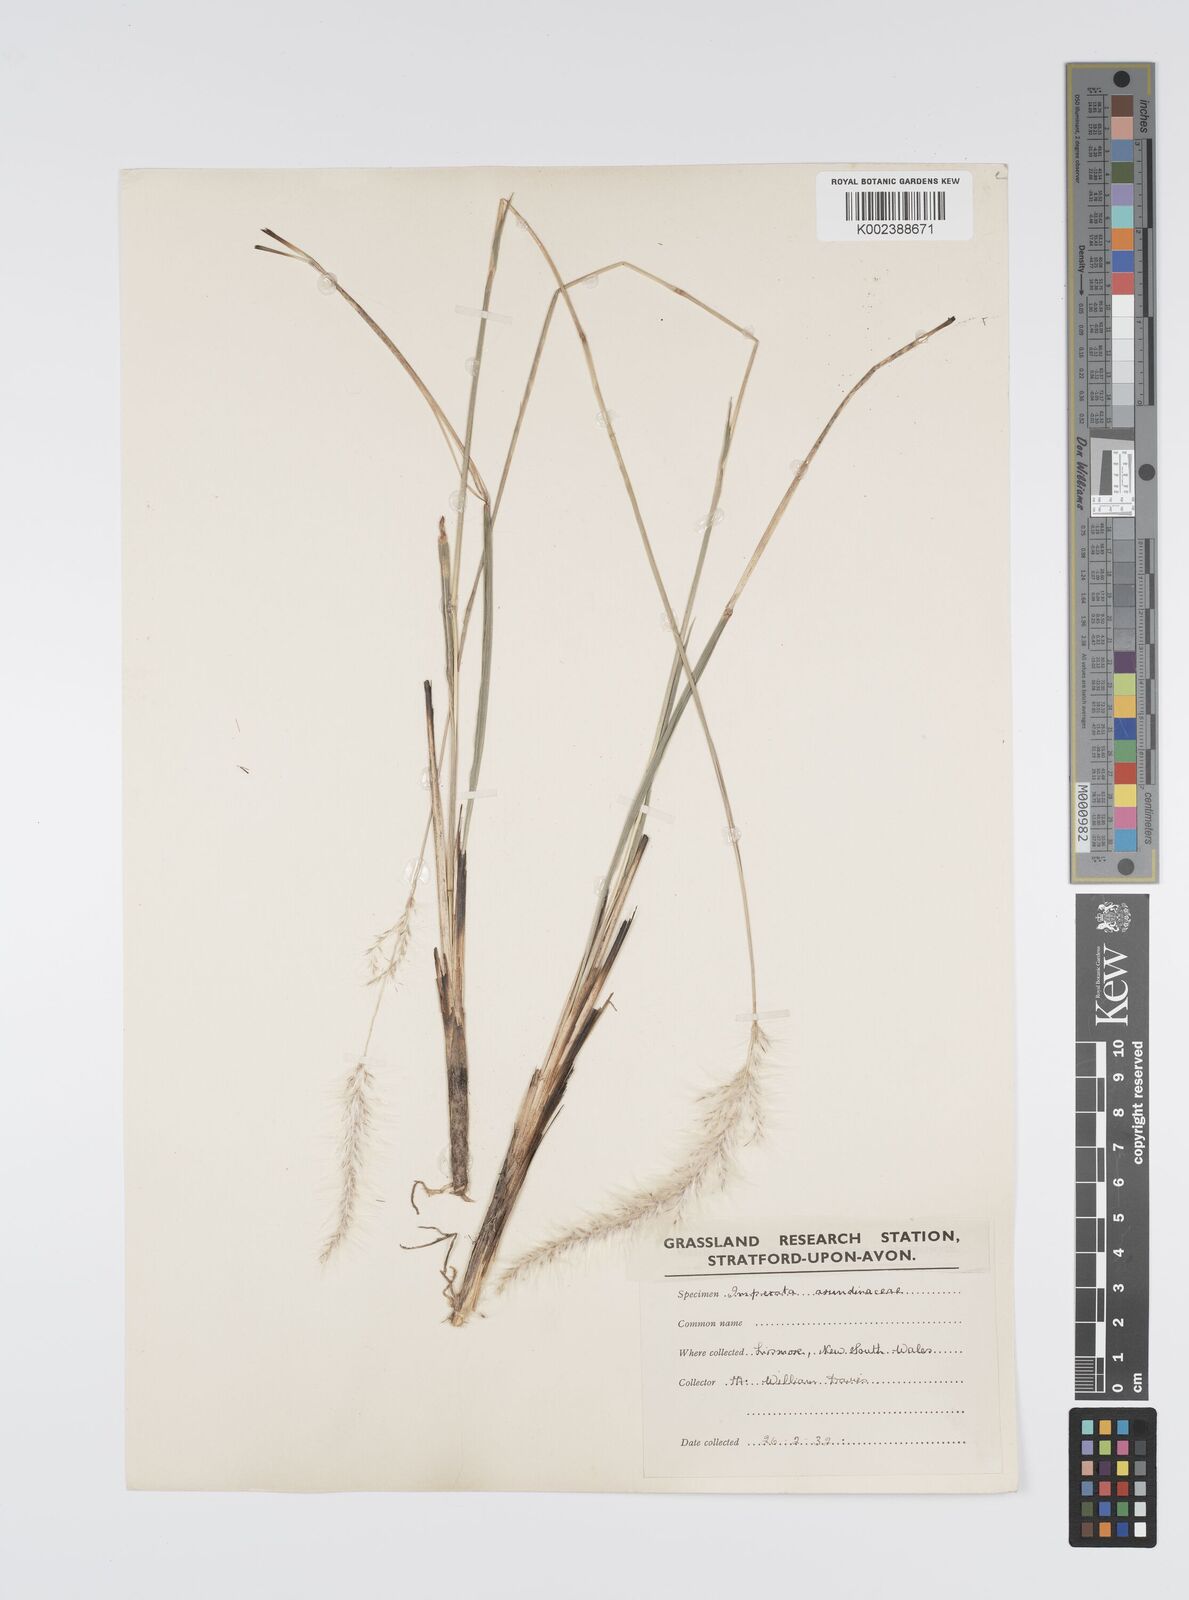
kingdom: Plantae
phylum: Tracheophyta
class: Liliopsida
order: Poales
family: Poaceae
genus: Imperata
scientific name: Imperata cylindrica
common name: Cogongrass
